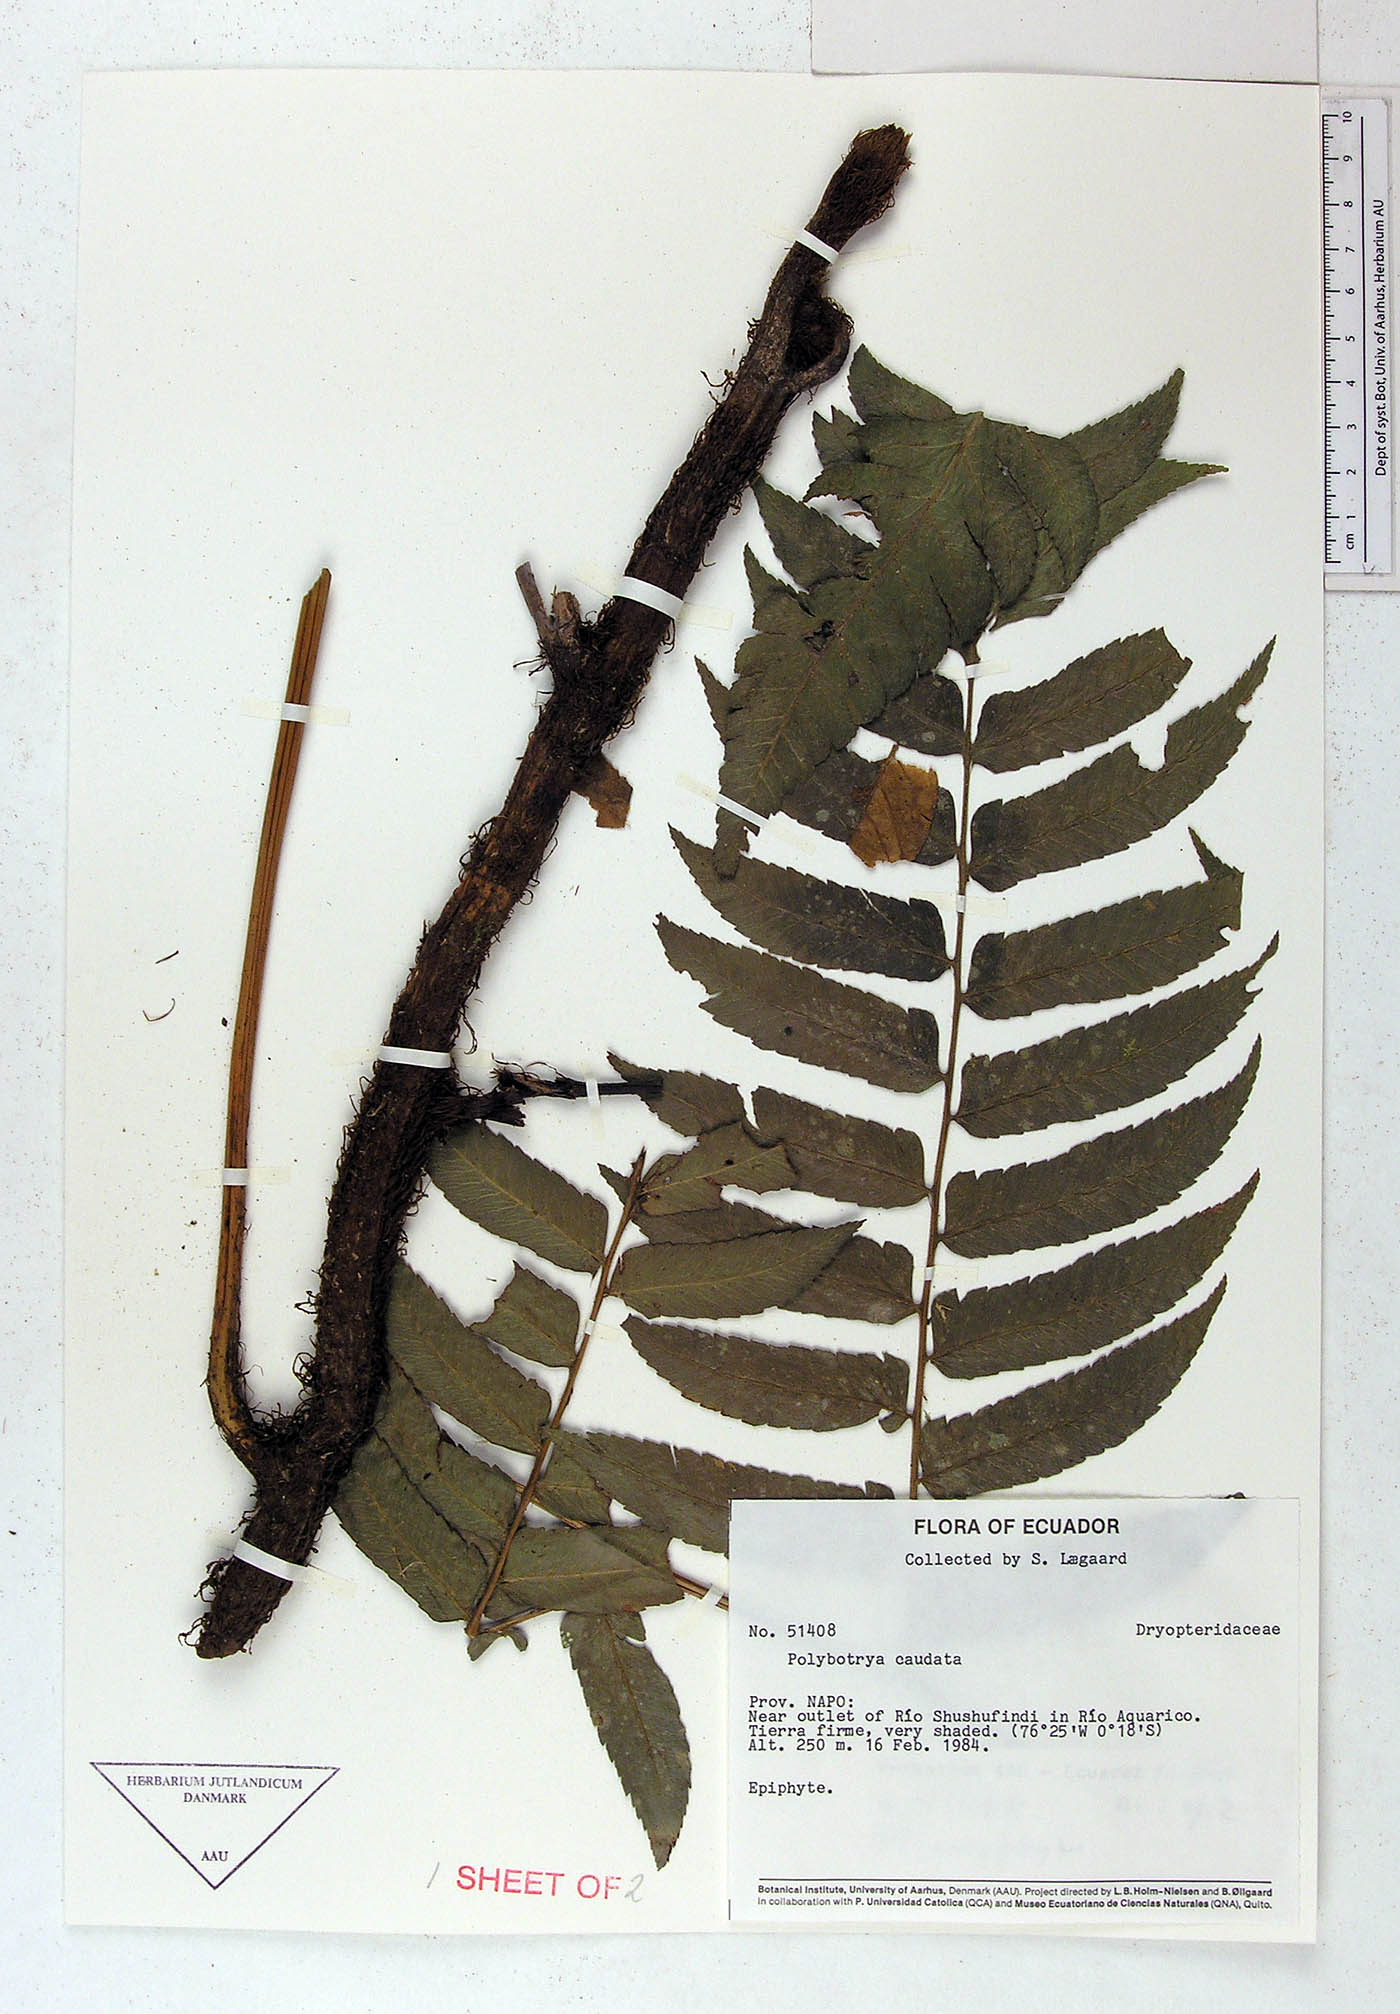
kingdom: Plantae
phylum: Tracheophyta
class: Polypodiopsida
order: Polypodiales
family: Dryopteridaceae
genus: Polybotrya
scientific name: Polybotrya caudata
